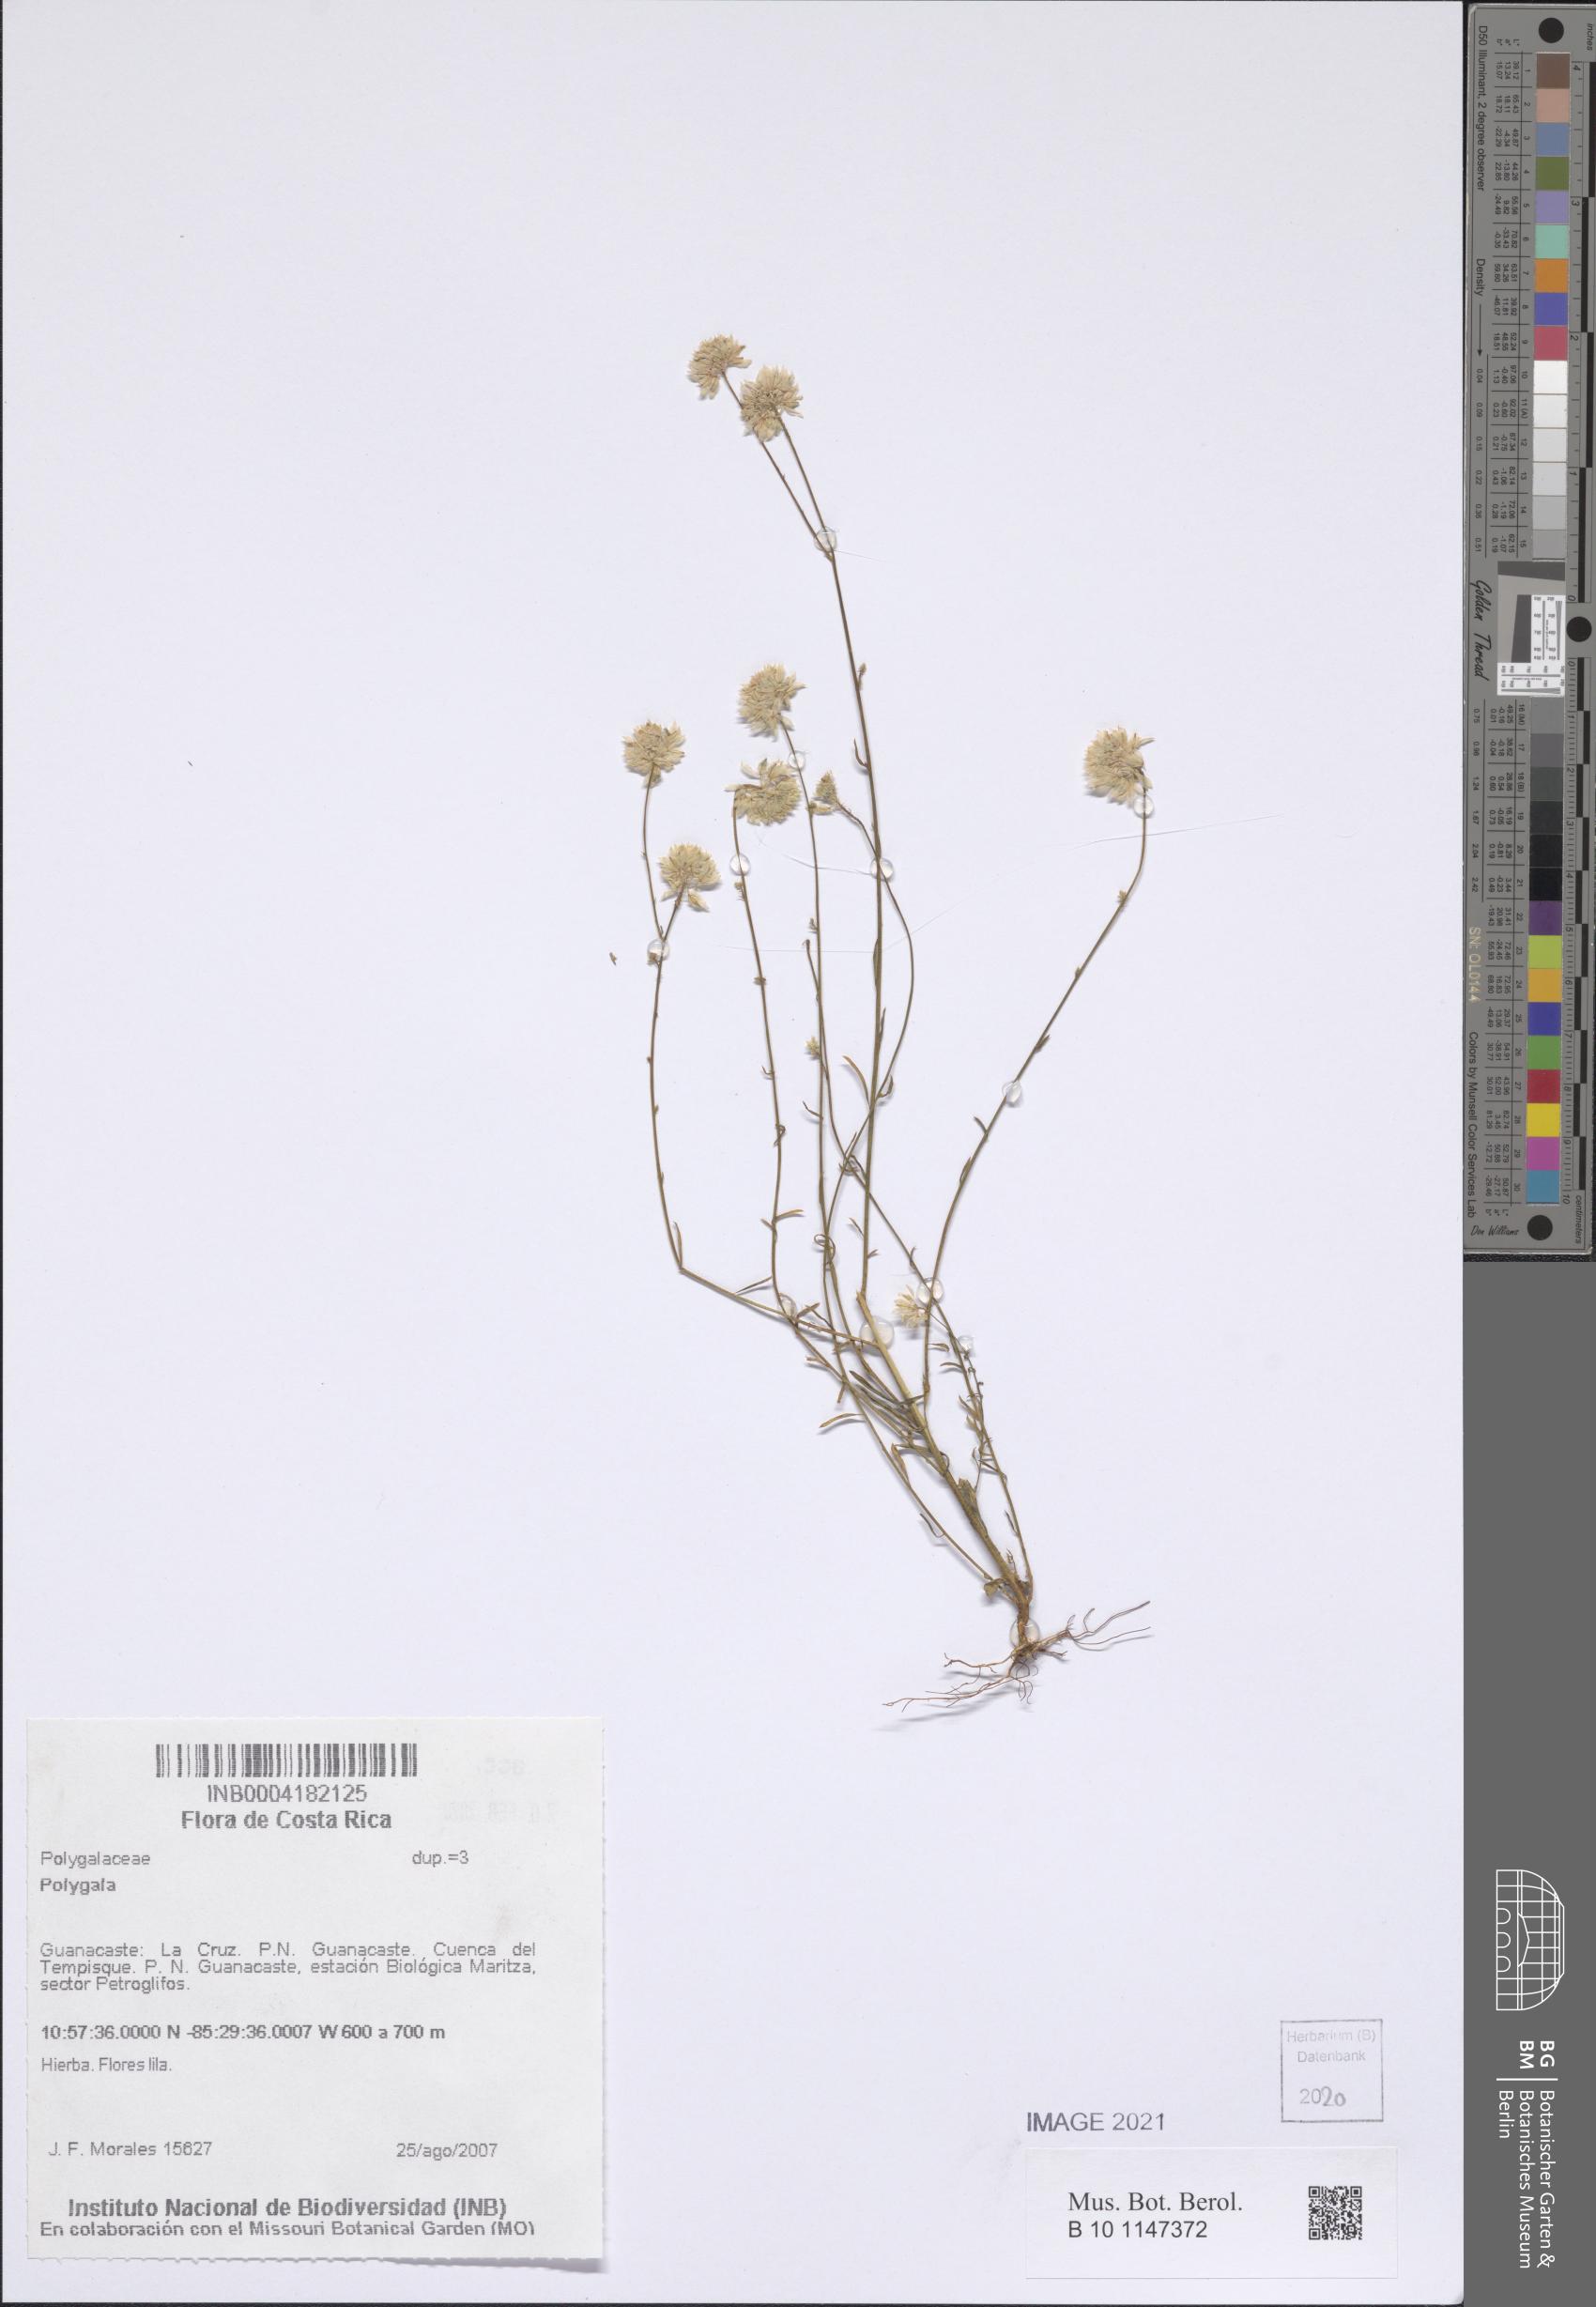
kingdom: Plantae
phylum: Tracheophyta
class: Magnoliopsida
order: Fabales
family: Polygalaceae
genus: Polygala
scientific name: Polygala
